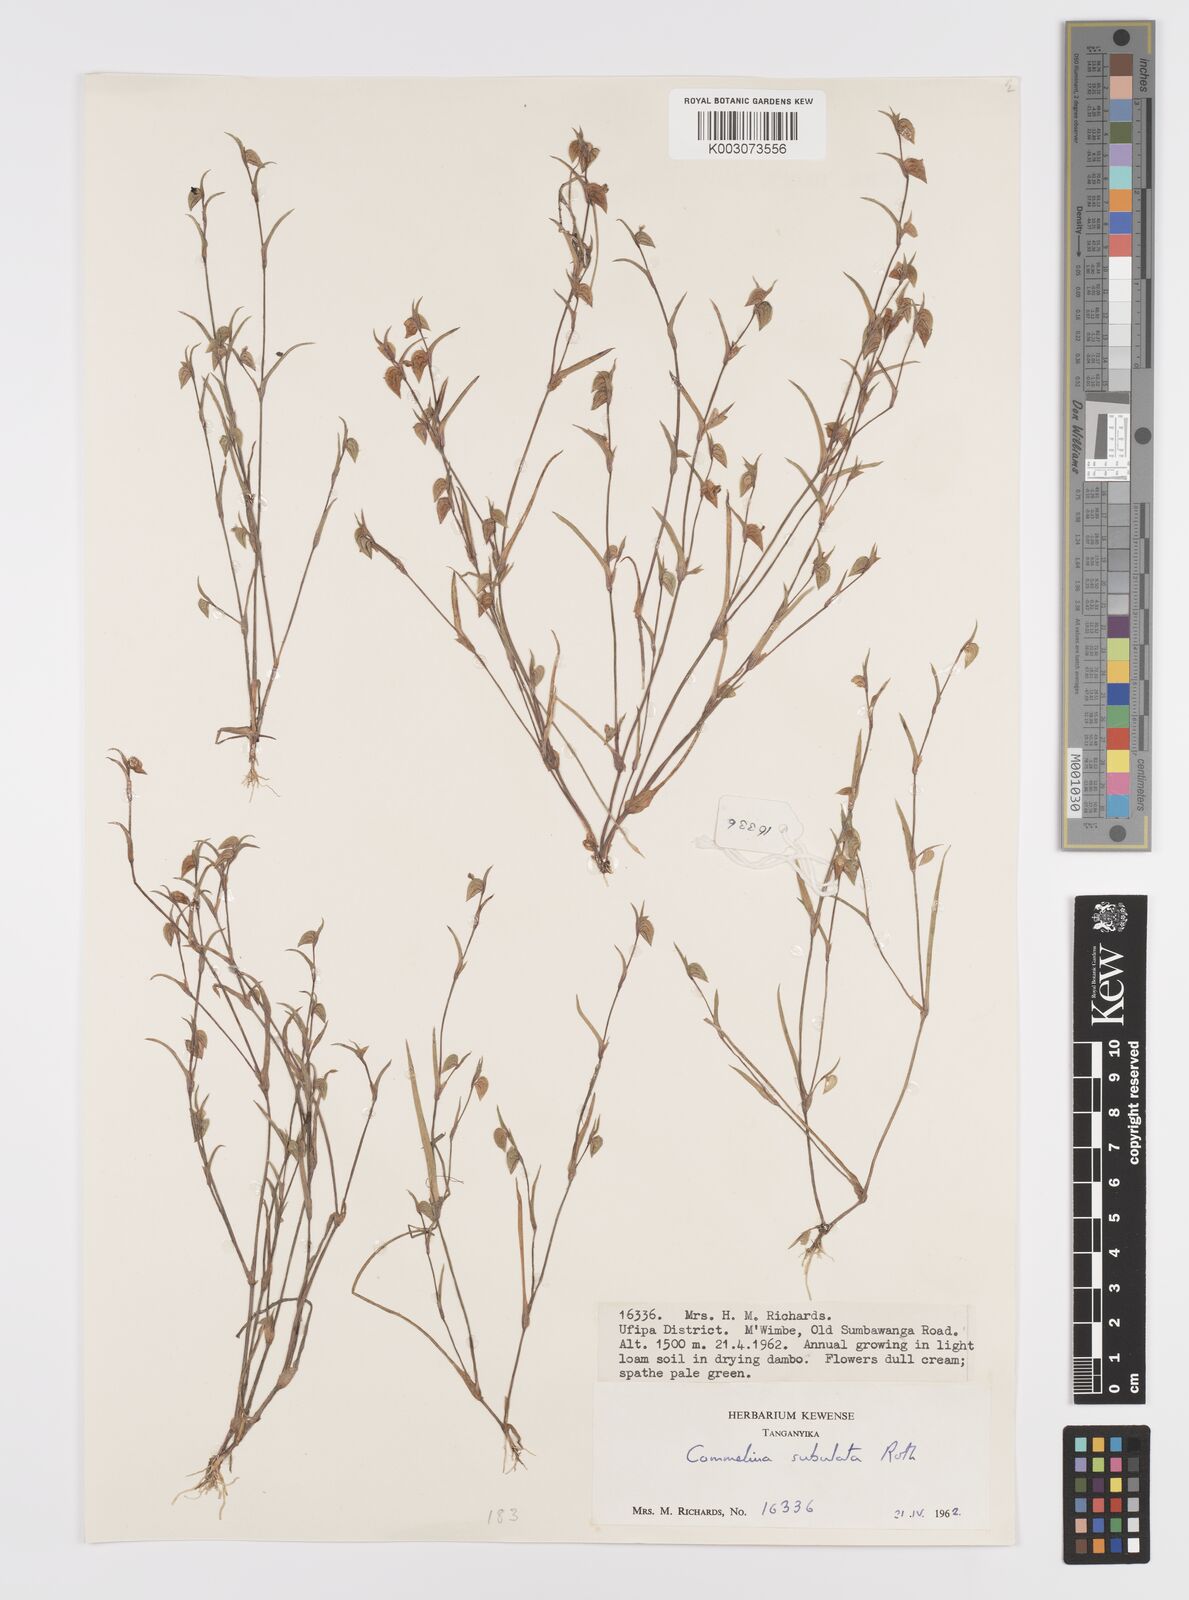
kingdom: Plantae
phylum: Tracheophyta
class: Liliopsida
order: Commelinales
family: Commelinaceae
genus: Commelina
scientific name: Commelina subulata
